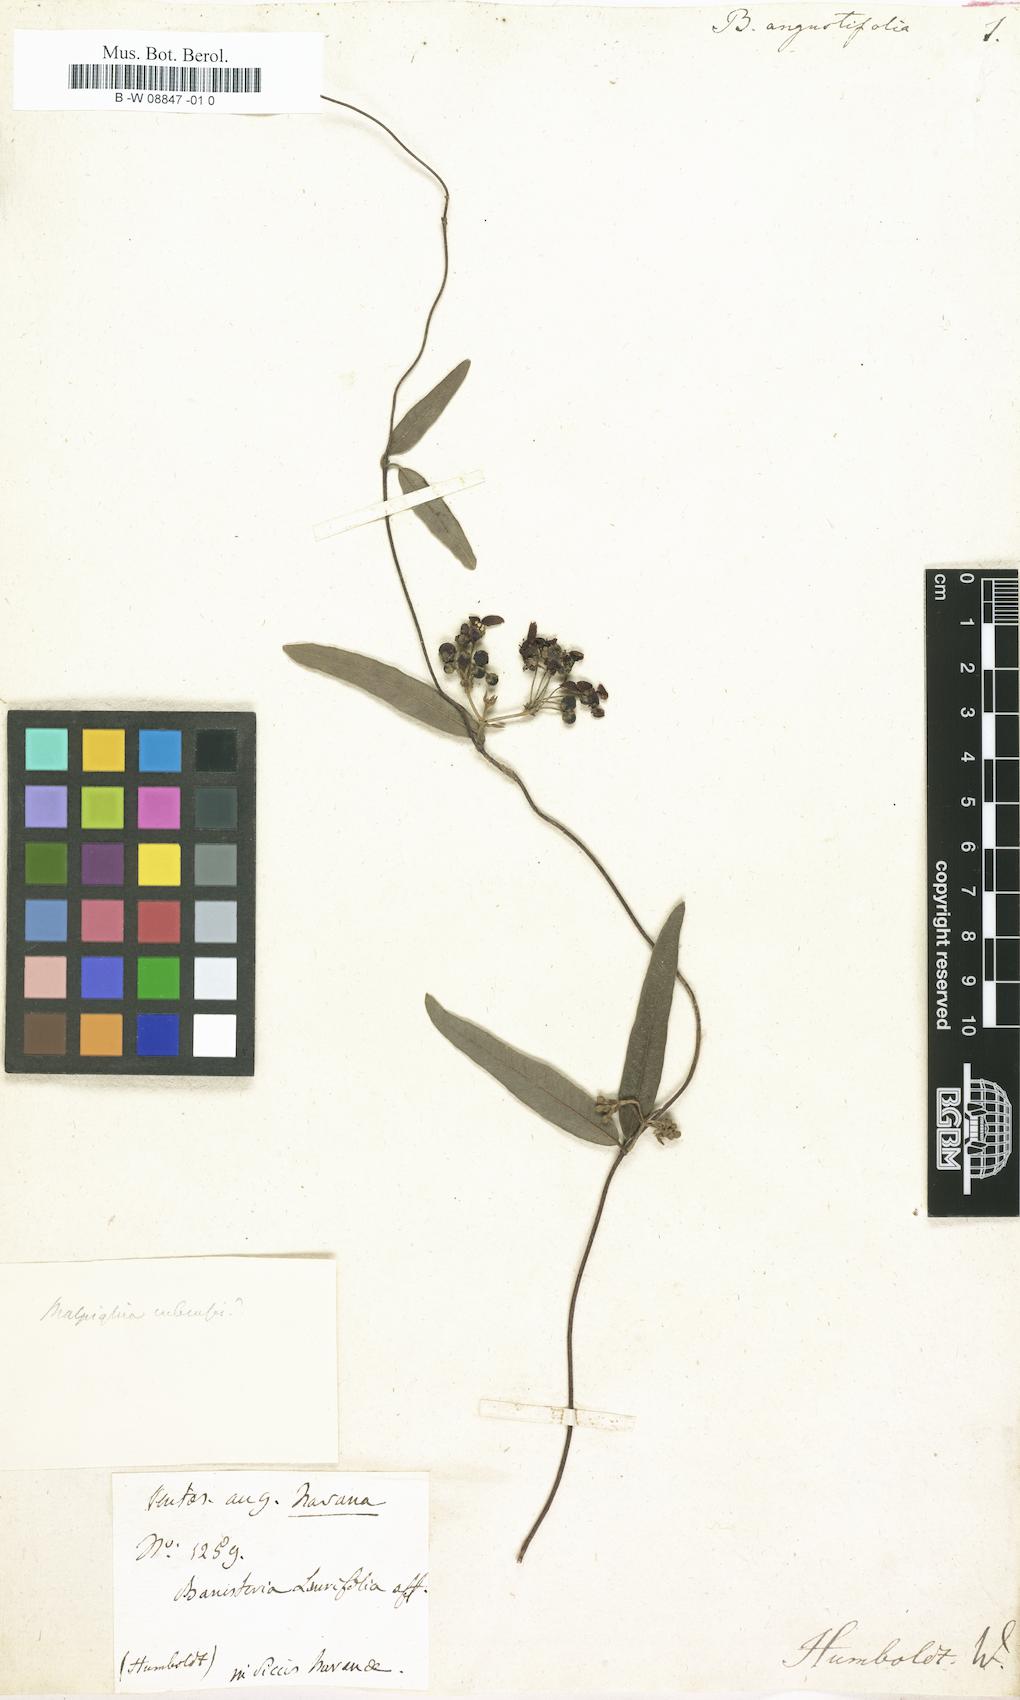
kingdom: Plantae
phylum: Tracheophyta
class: Magnoliopsida
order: Malpighiales
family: Malpighiaceae
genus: Banisteriopsis
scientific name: Banisteriopsis angustifolia
